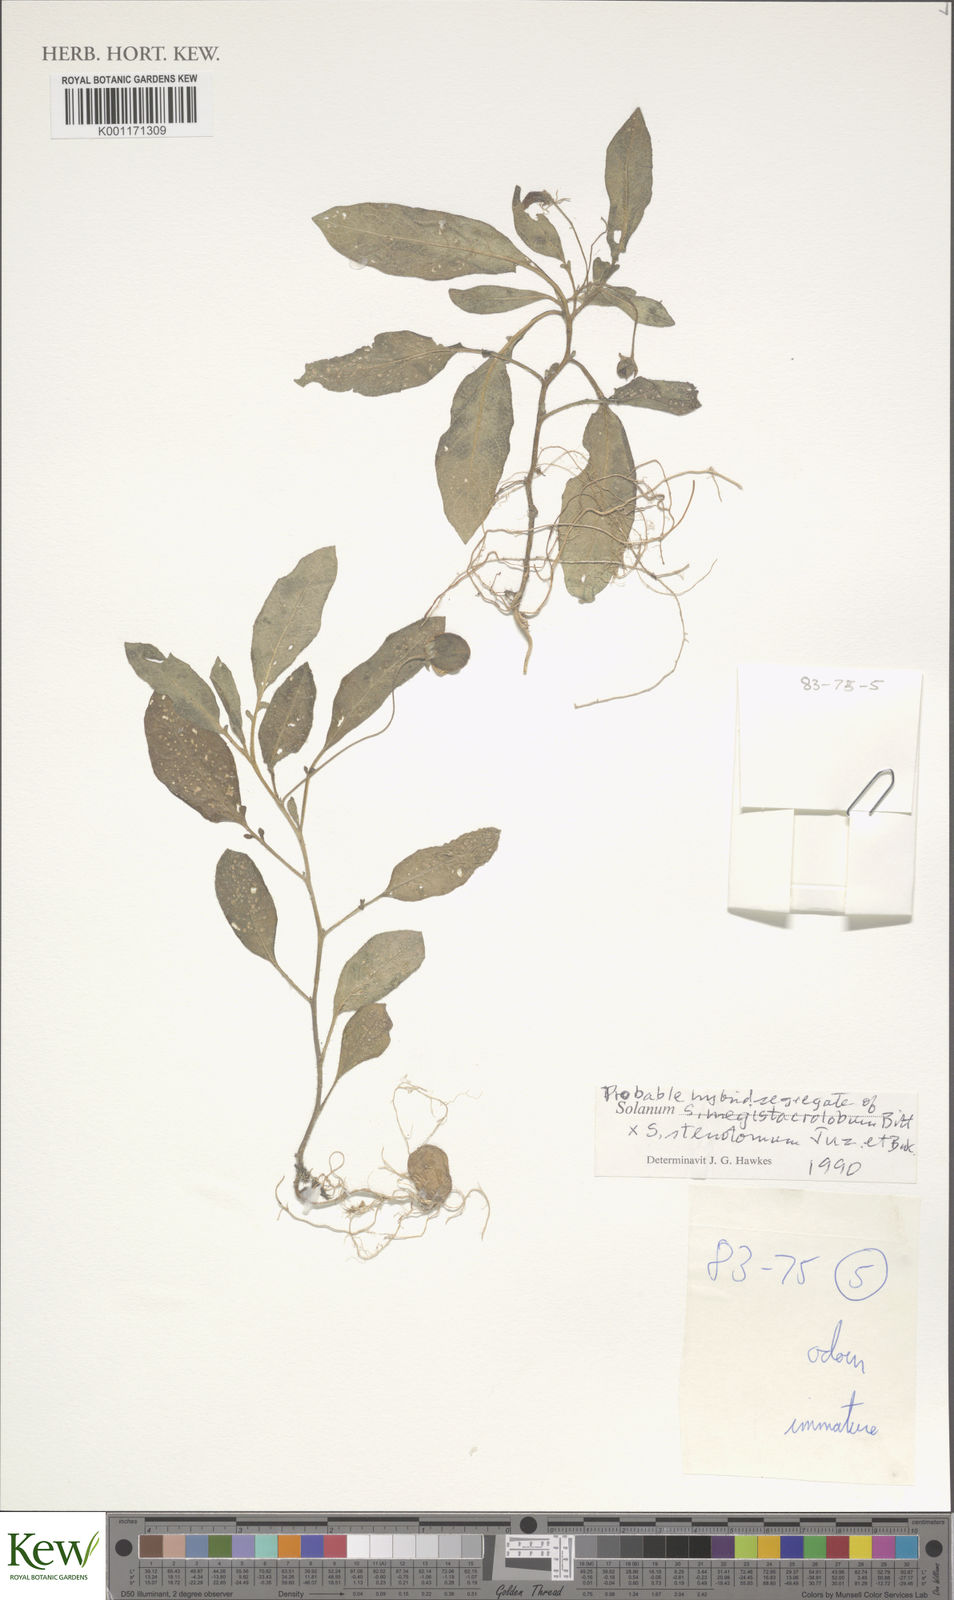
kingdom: Plantae
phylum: Tracheophyta
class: Magnoliopsida
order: Solanales
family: Solanaceae
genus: Solanum
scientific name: Solanum boliviense
